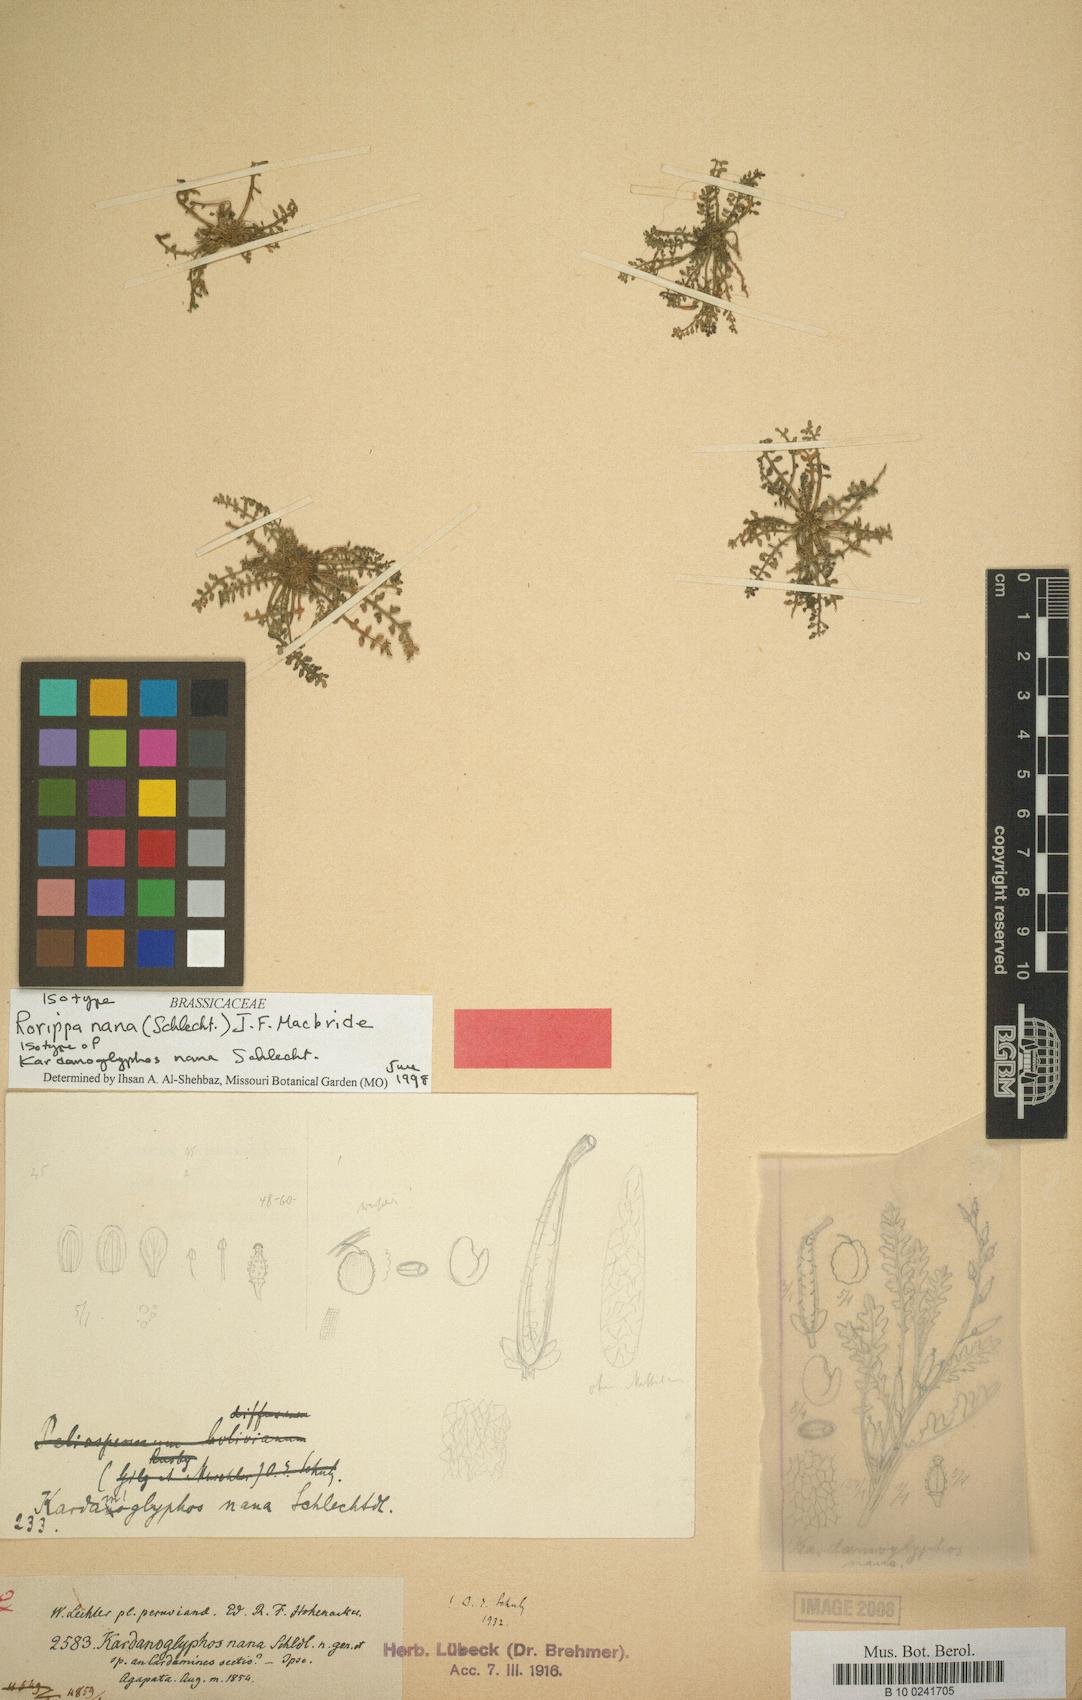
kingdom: Plantae
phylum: Tracheophyta
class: Magnoliopsida
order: Brassicales
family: Brassicaceae
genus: Rorippa
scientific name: Rorippa nana
